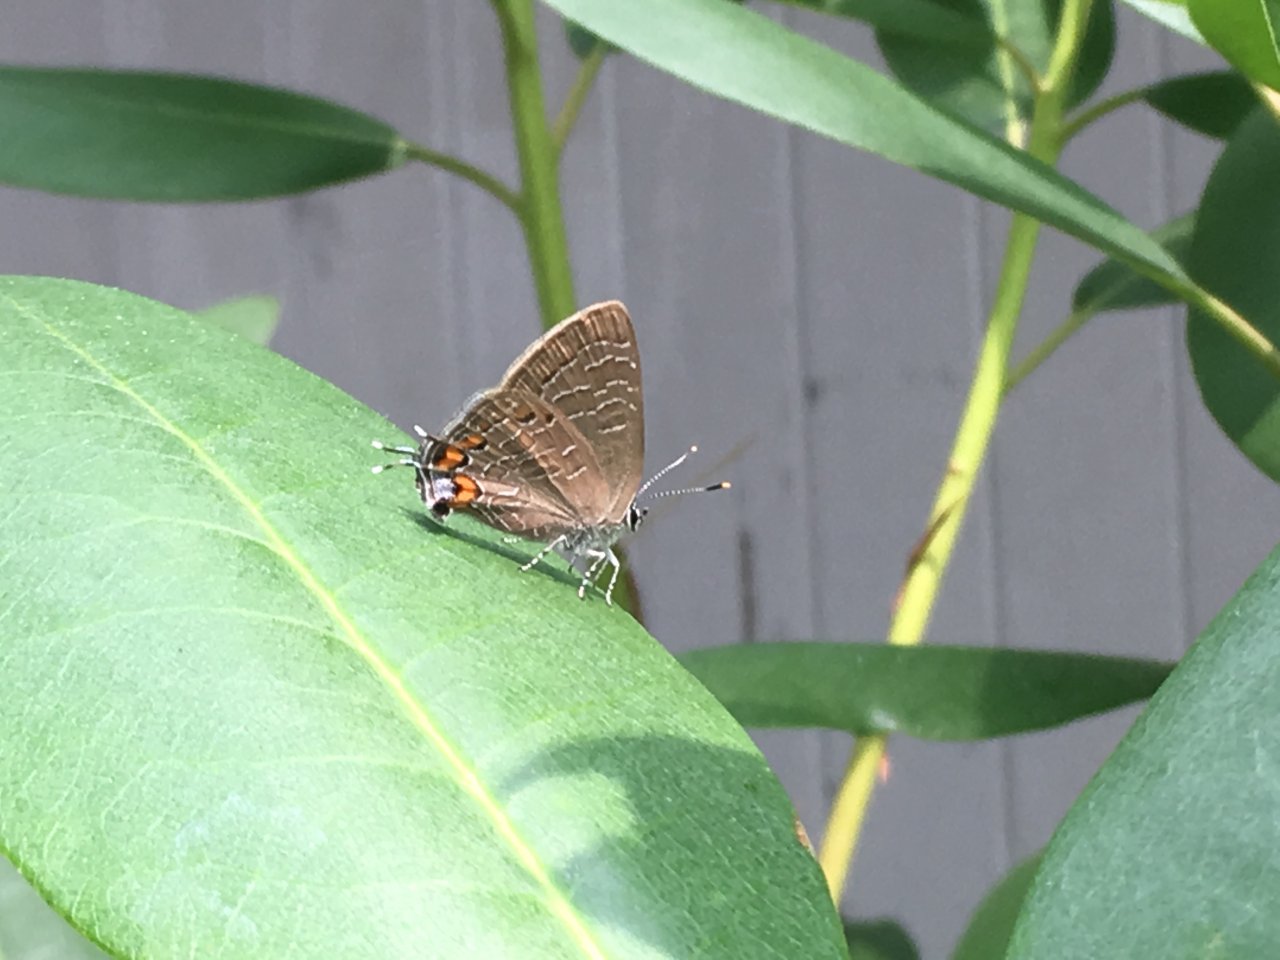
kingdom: Animalia
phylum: Arthropoda
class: Insecta
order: Lepidoptera
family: Lycaenidae
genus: Satyrium
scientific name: Satyrium liparops
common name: Striped Hairstreak
